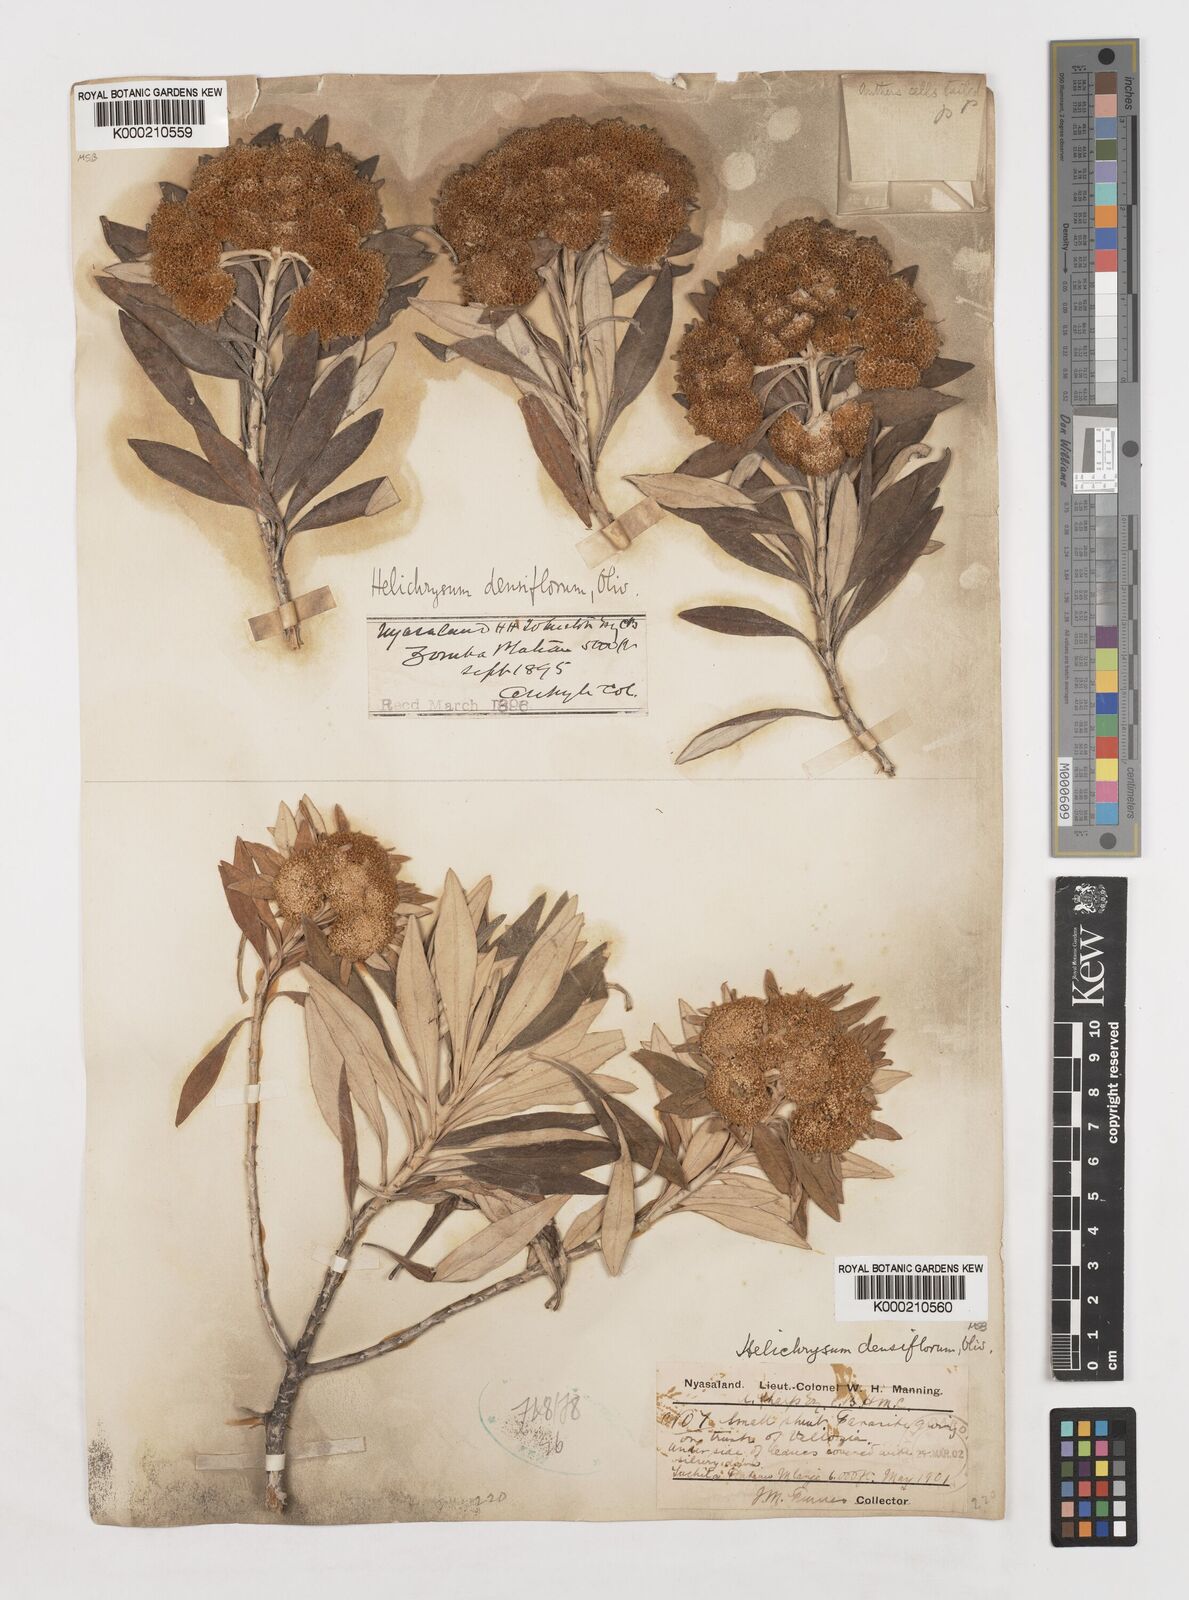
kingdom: Plantae
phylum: Tracheophyta
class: Magnoliopsida
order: Asterales
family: Asteraceae
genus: Helichrysum
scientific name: Helichrysum densiflorum
